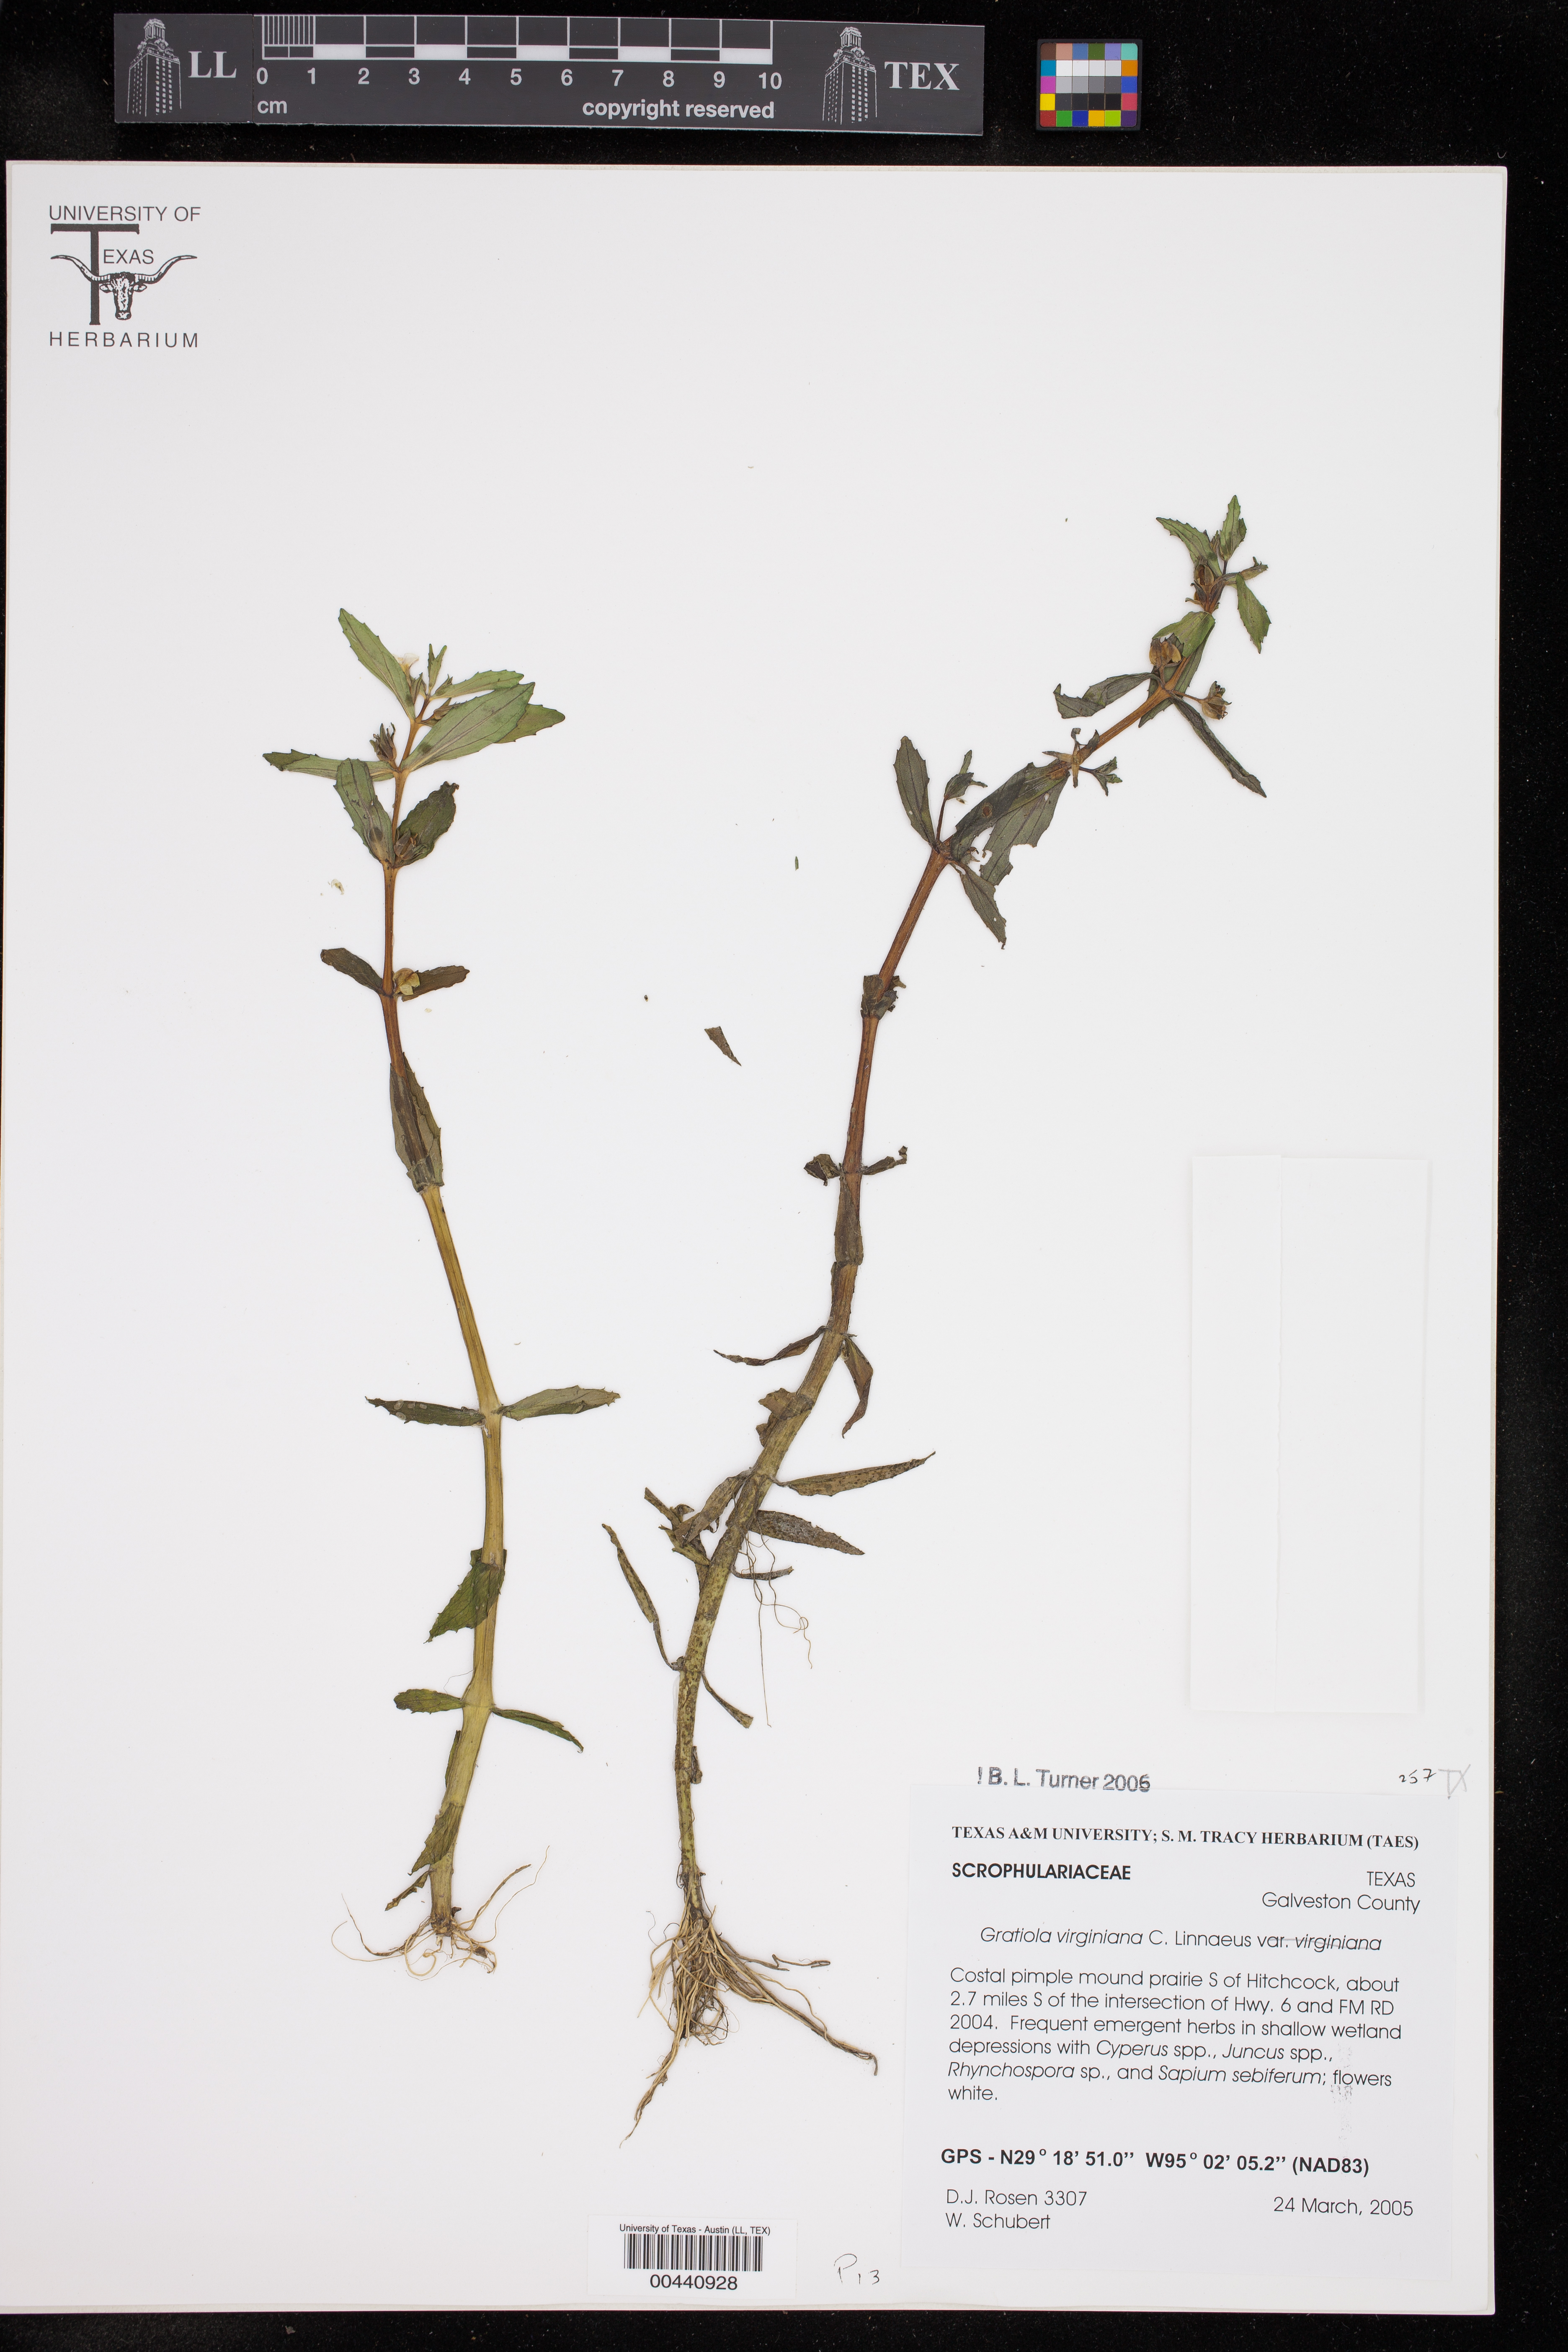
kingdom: Plantae
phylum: Tracheophyta
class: Magnoliopsida
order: Lamiales
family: Plantaginaceae
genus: Gratiola
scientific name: Gratiola virginiana
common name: Roundfruit hedgehyssop
